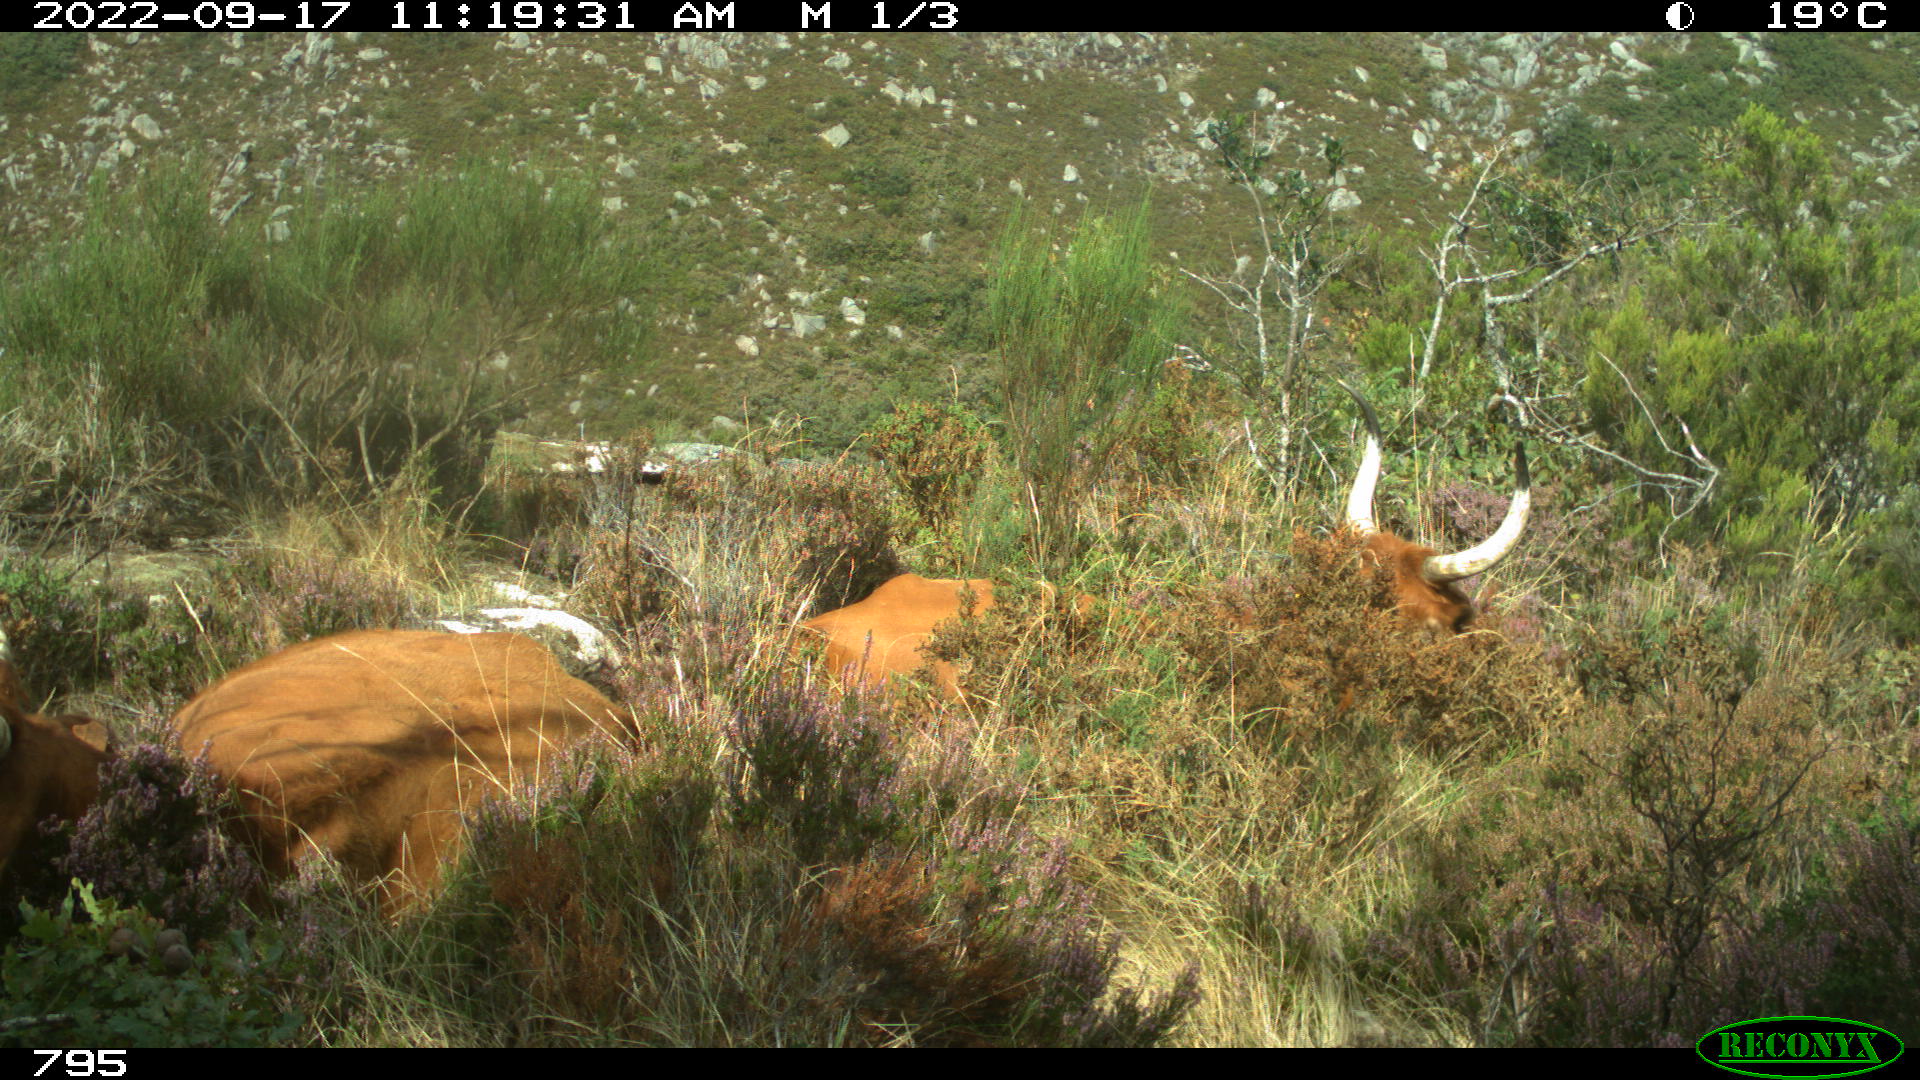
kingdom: Animalia
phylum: Chordata
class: Mammalia
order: Artiodactyla
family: Bovidae
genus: Bos
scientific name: Bos taurus
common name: Domesticated cattle
